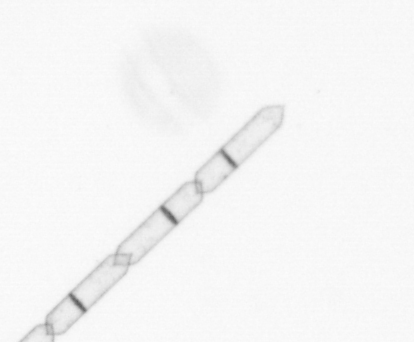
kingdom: Chromista
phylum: Ochrophyta
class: Bacillariophyceae
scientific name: Bacillariophyceae
